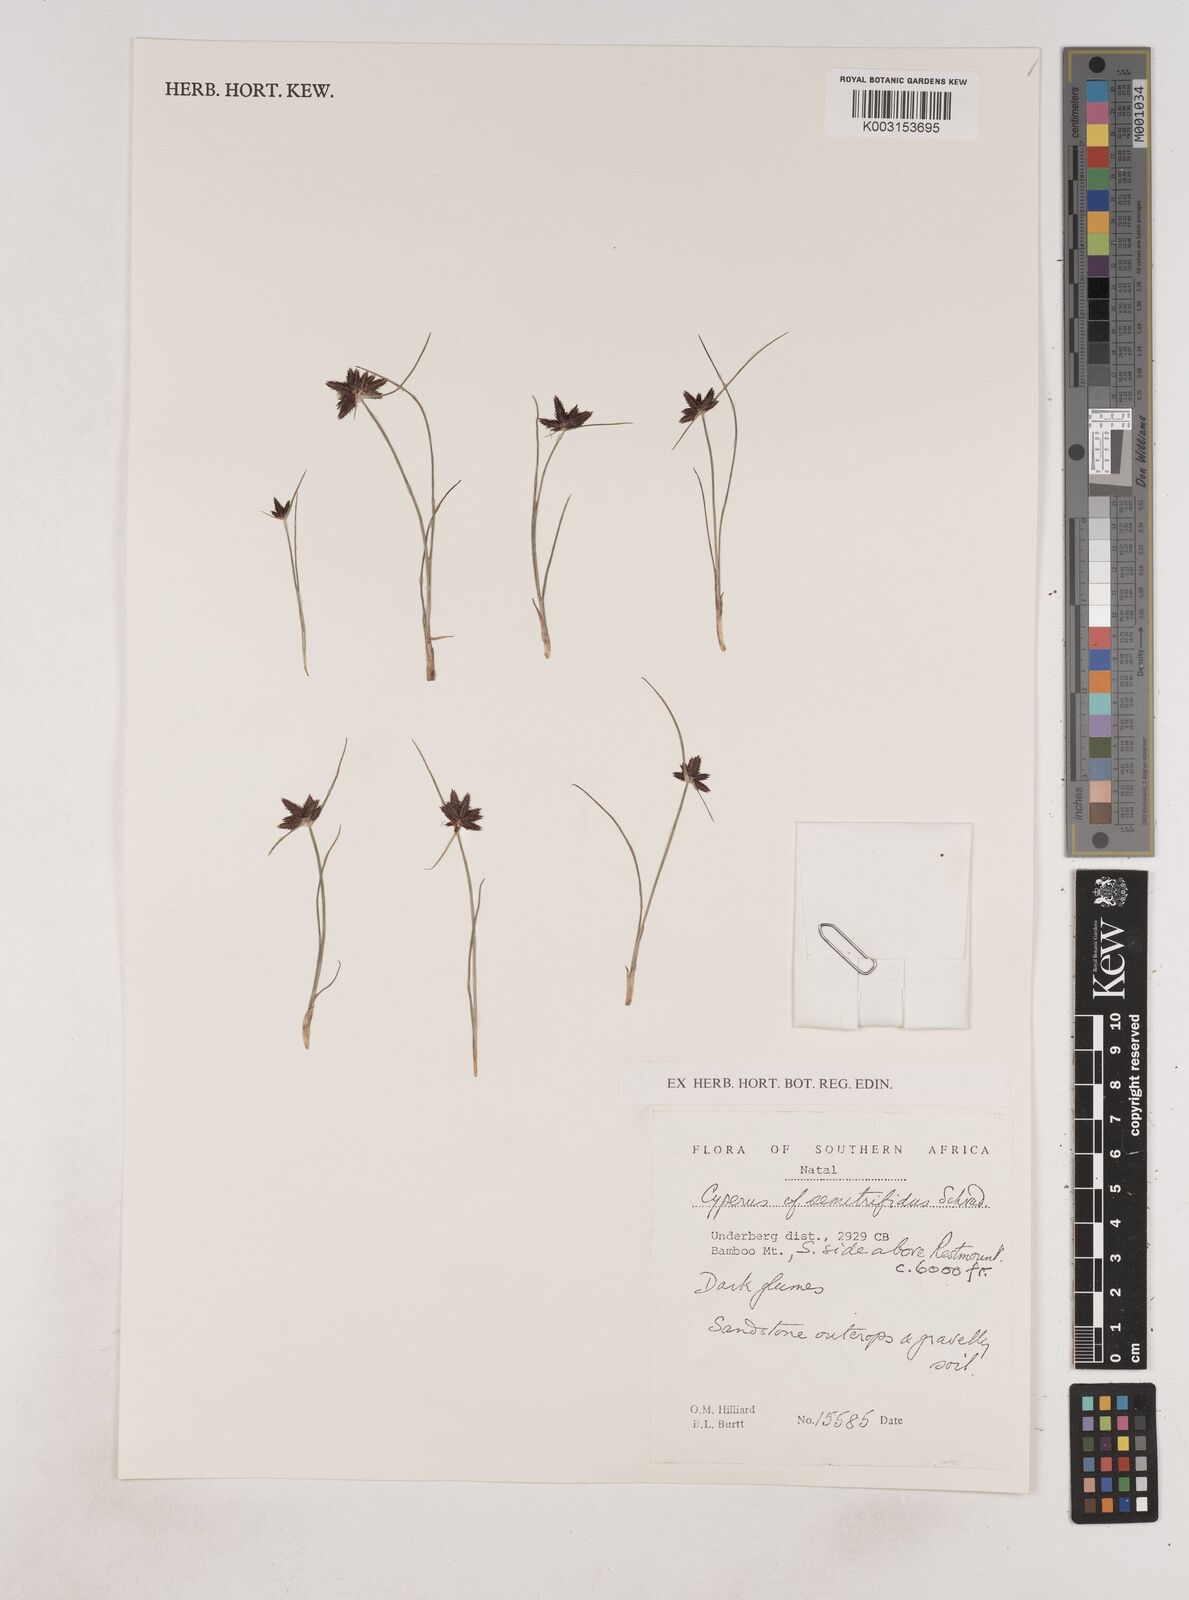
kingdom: Plantae
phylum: Tracheophyta
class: Liliopsida
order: Poales
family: Cyperaceae
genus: Cyperus
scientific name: Cyperus semitrifidus
